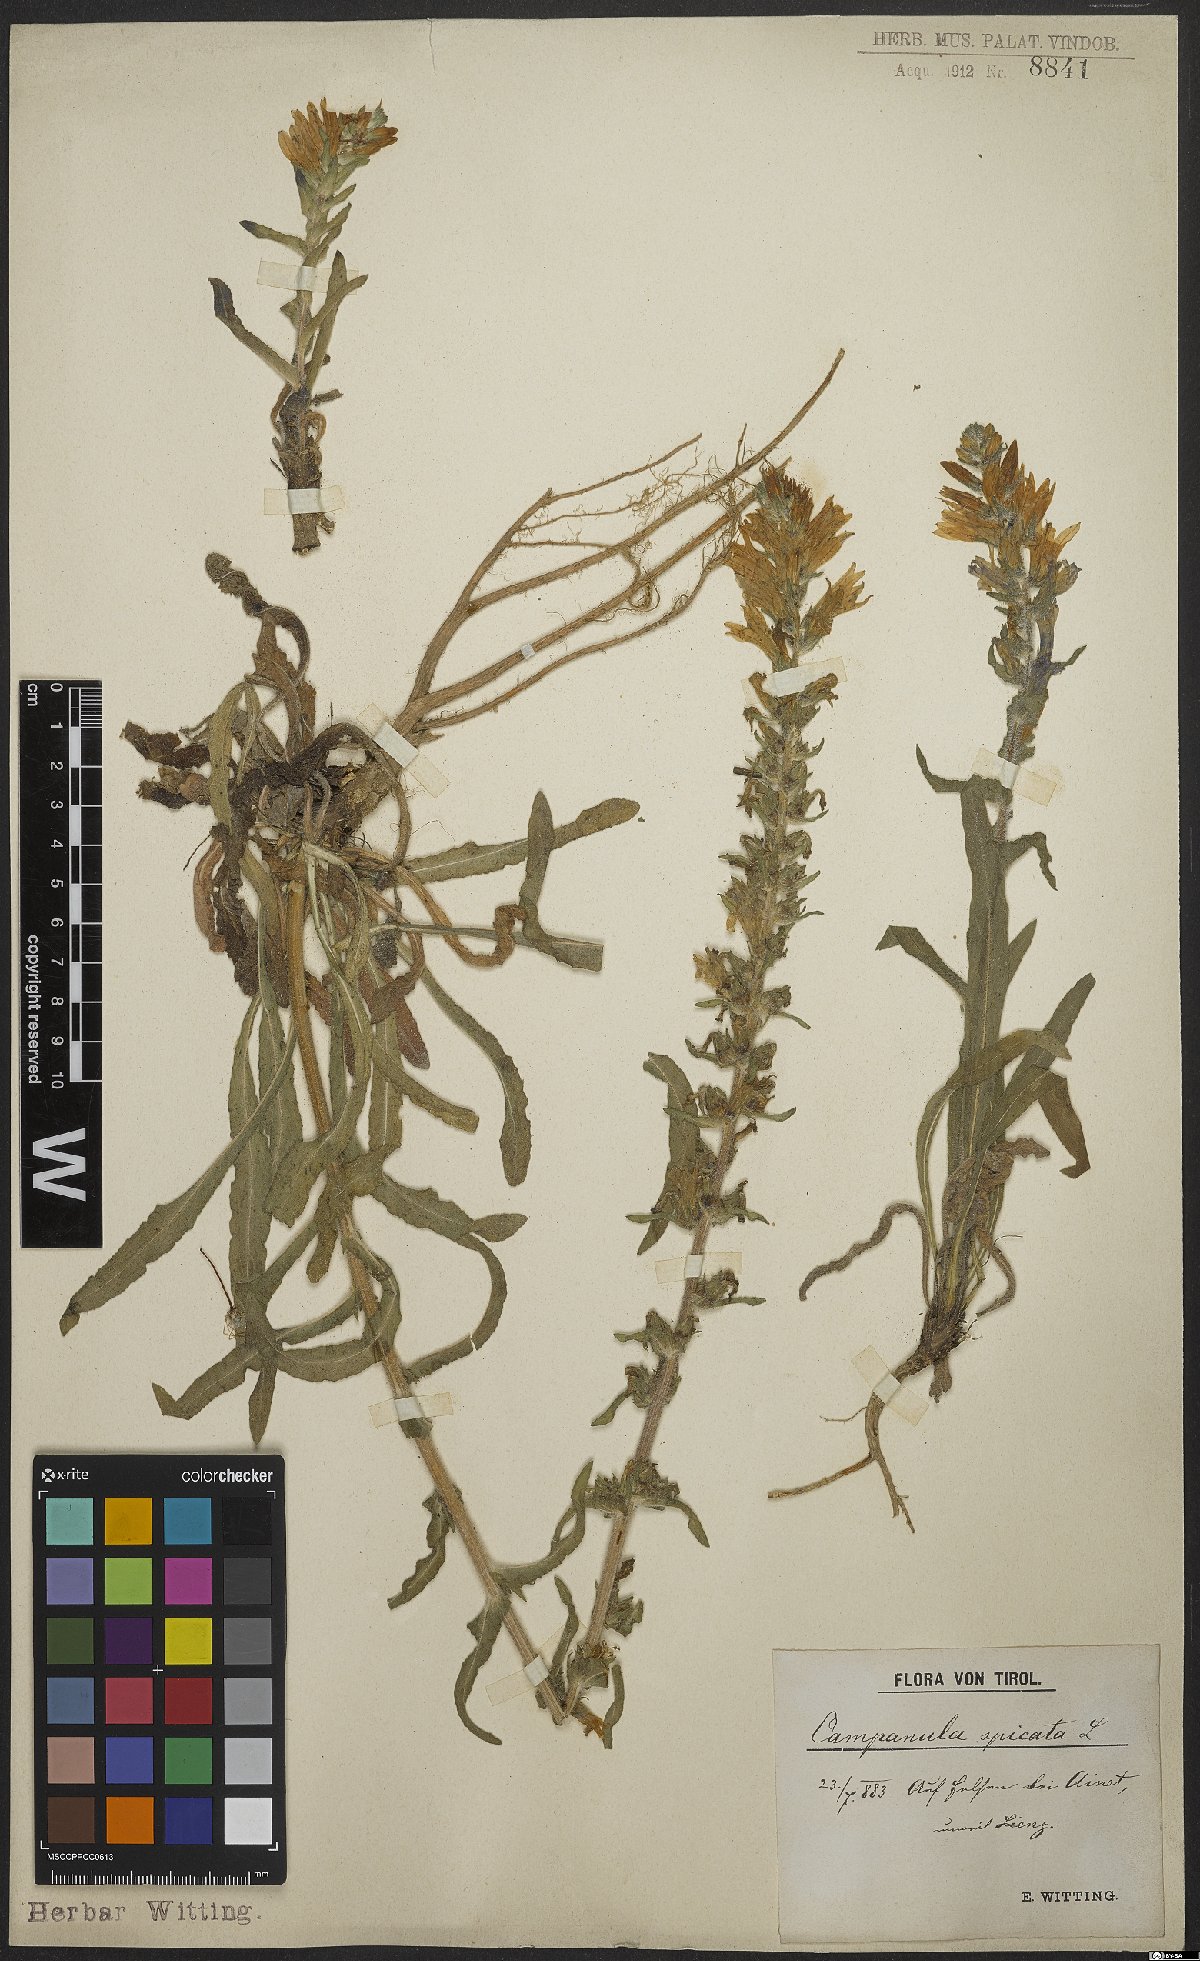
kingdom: Plantae
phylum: Tracheophyta
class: Magnoliopsida
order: Asterales
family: Campanulaceae
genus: Campanula
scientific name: Campanula spicata
